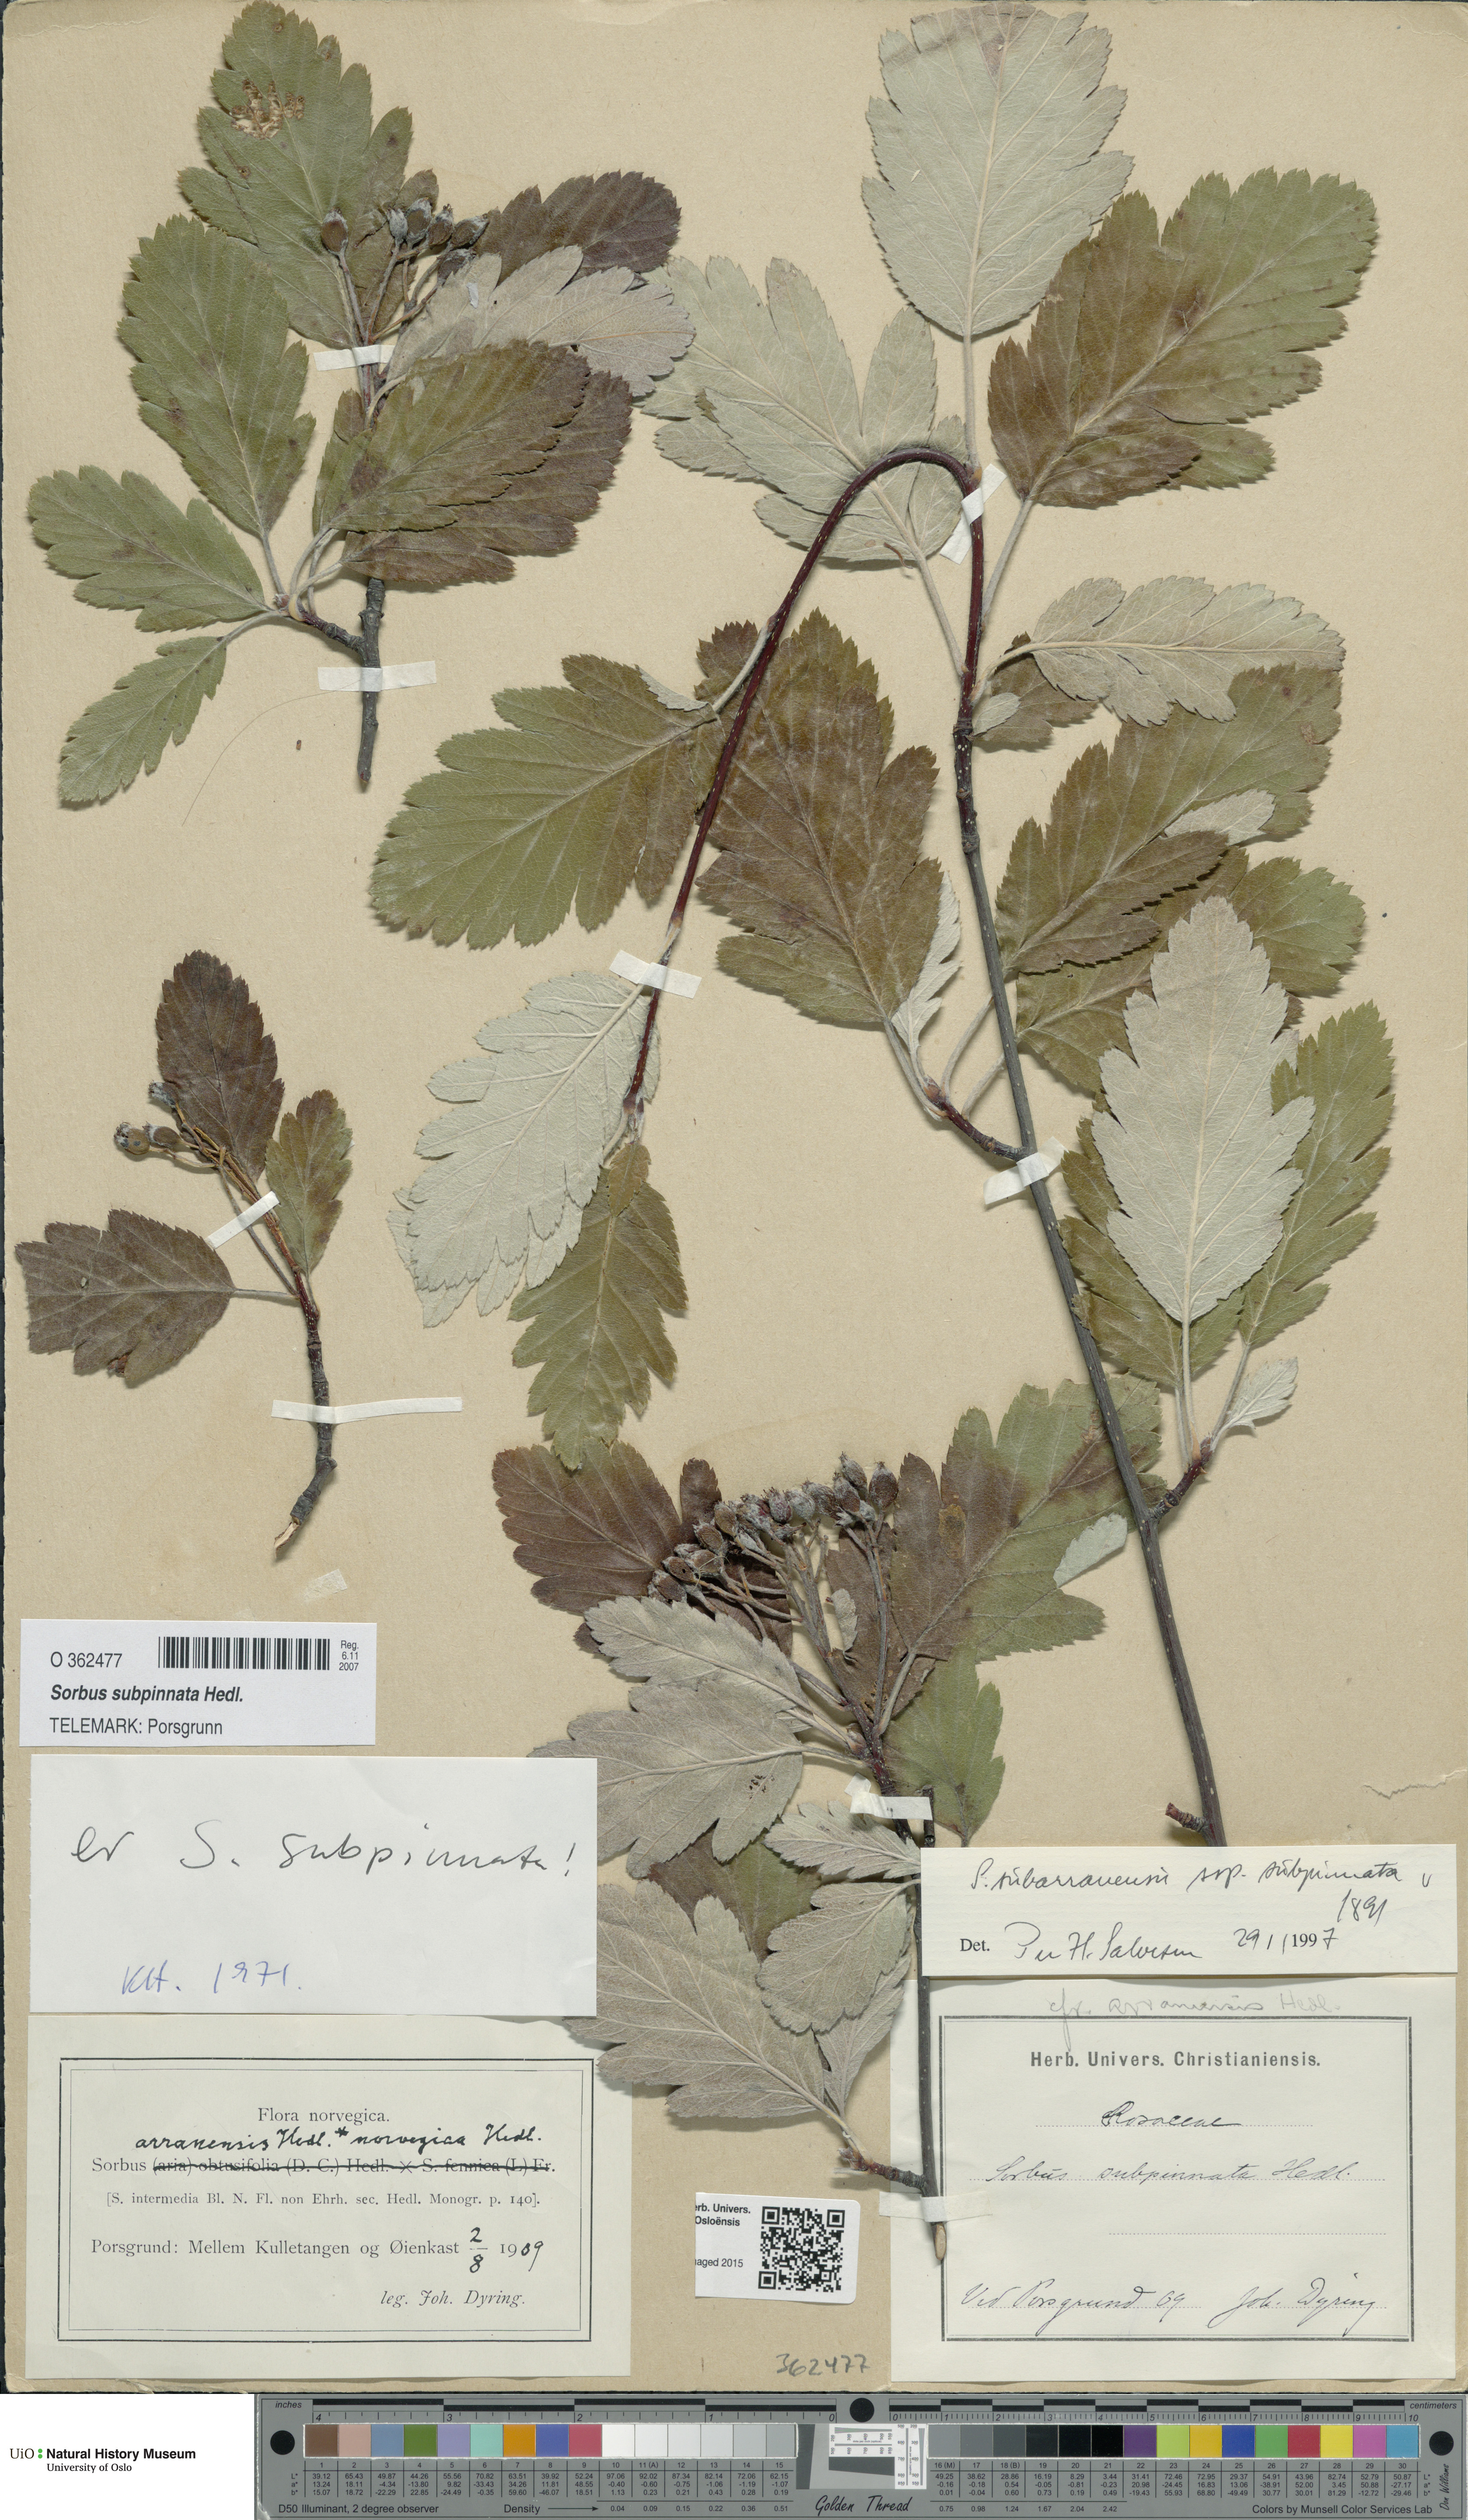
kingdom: Plantae
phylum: Tracheophyta
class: Magnoliopsida
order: Rosales
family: Rosaceae
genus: Hedlundia
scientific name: Hedlundia subpinnata
